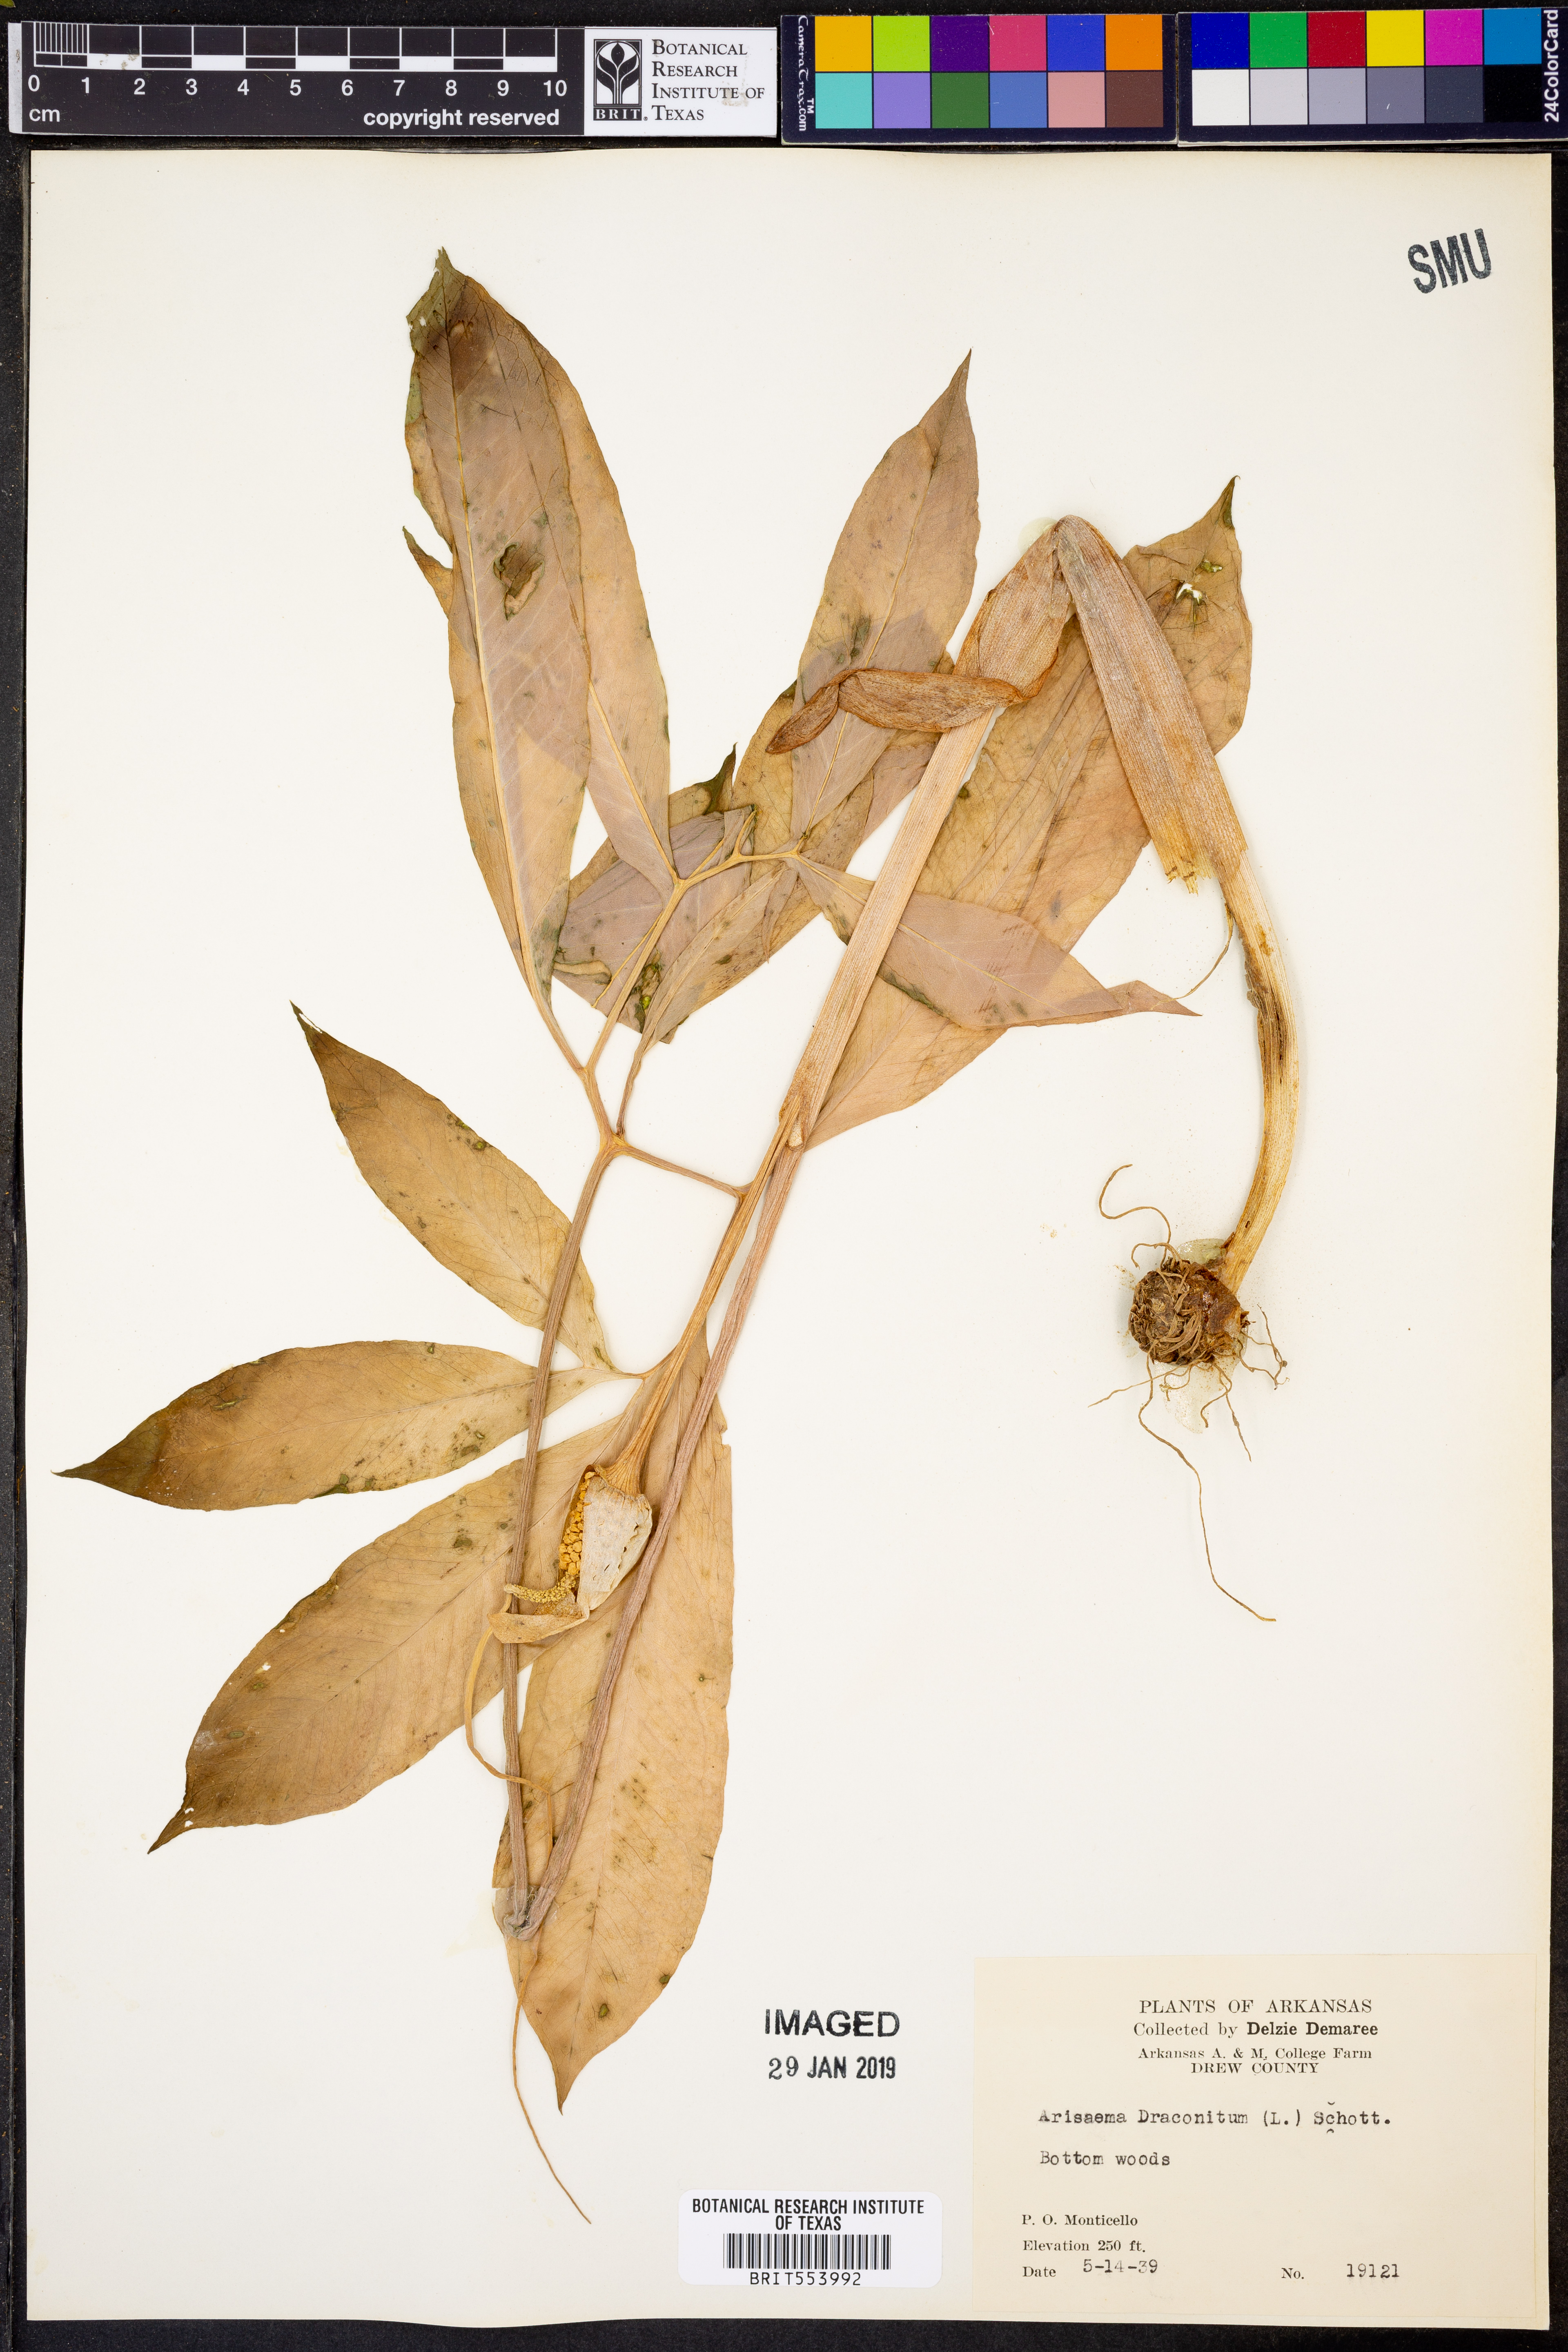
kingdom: Plantae
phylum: Tracheophyta
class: Liliopsida
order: Alismatales
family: Araceae
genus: Arisaema
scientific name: Arisaema dracontium
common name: Dragon-arum
